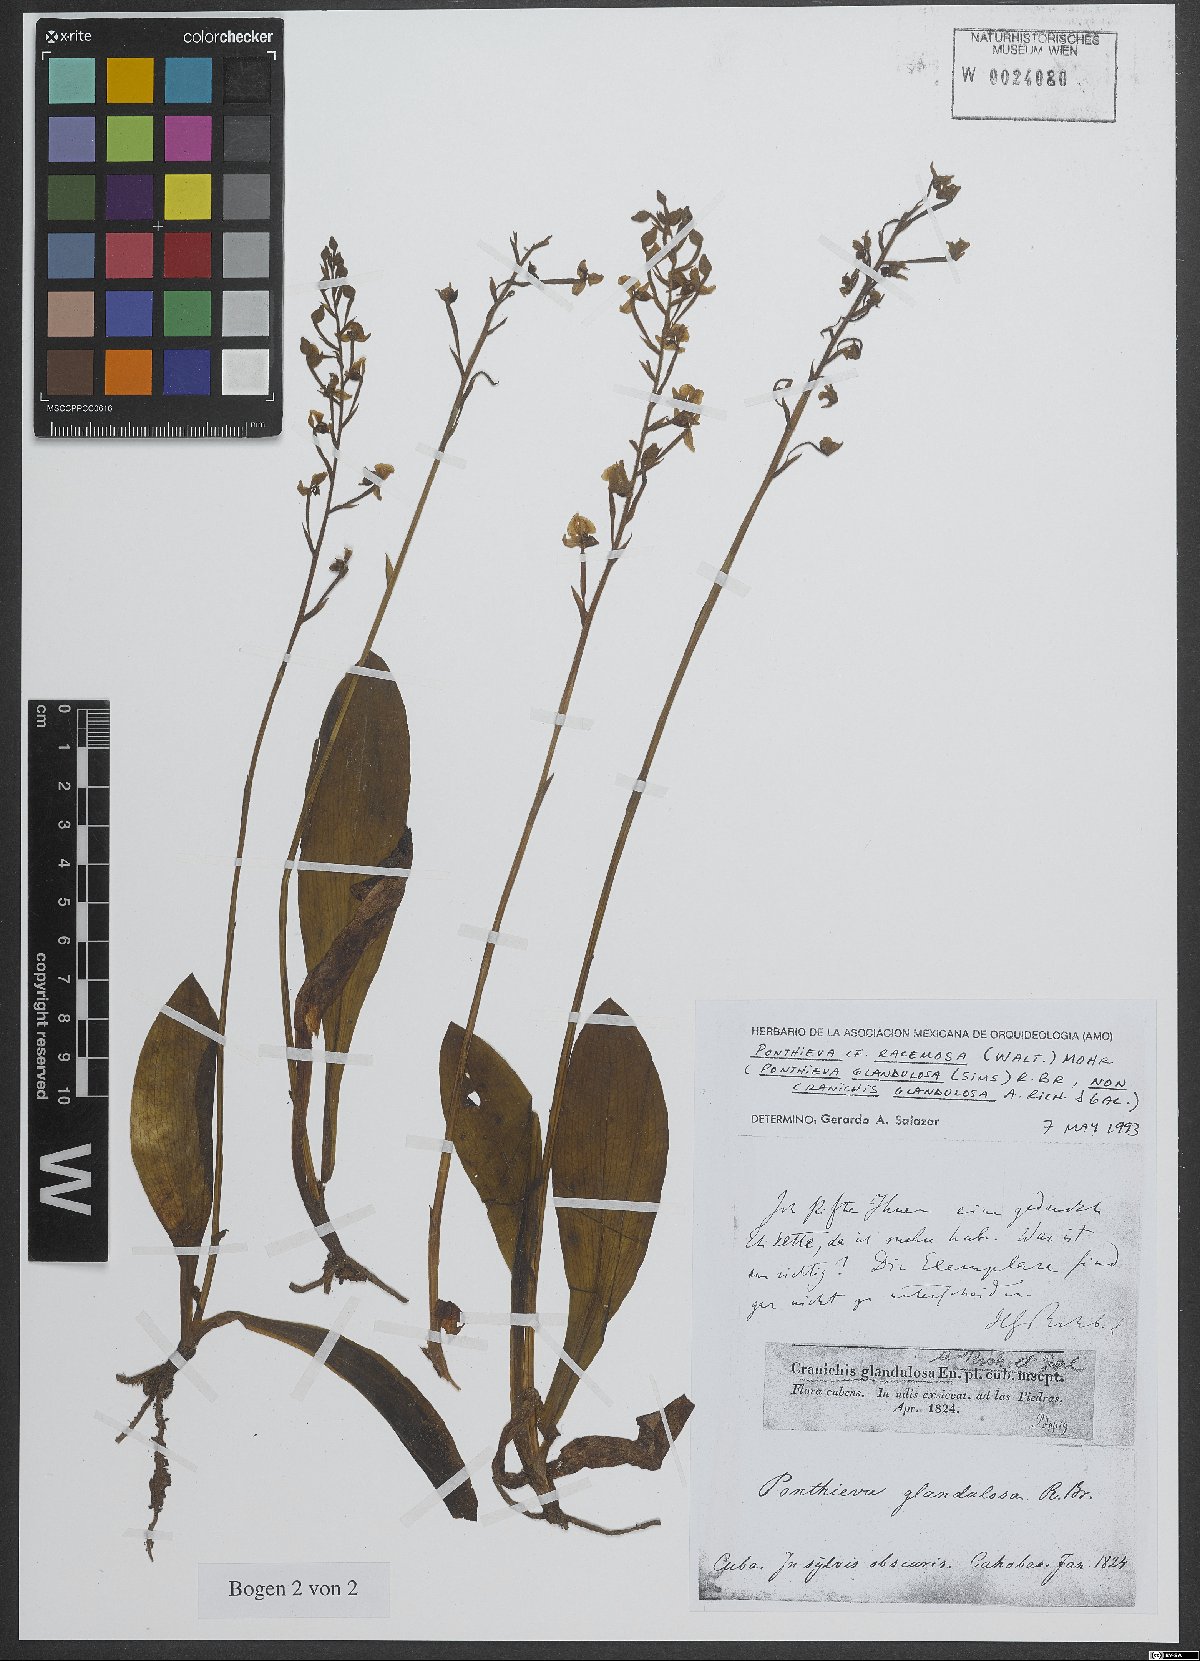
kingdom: Plantae
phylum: Tracheophyta
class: Liliopsida
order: Asparagales
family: Orchidaceae
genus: Ponthieva
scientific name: Ponthieva racemosa
